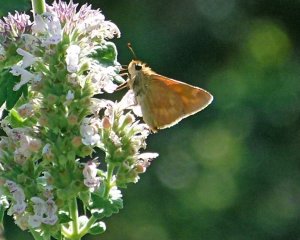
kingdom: Animalia
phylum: Arthropoda
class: Insecta
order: Lepidoptera
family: Hesperiidae
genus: Ochlodes
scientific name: Ochlodes sylvanoides
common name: Woodland Skipper
